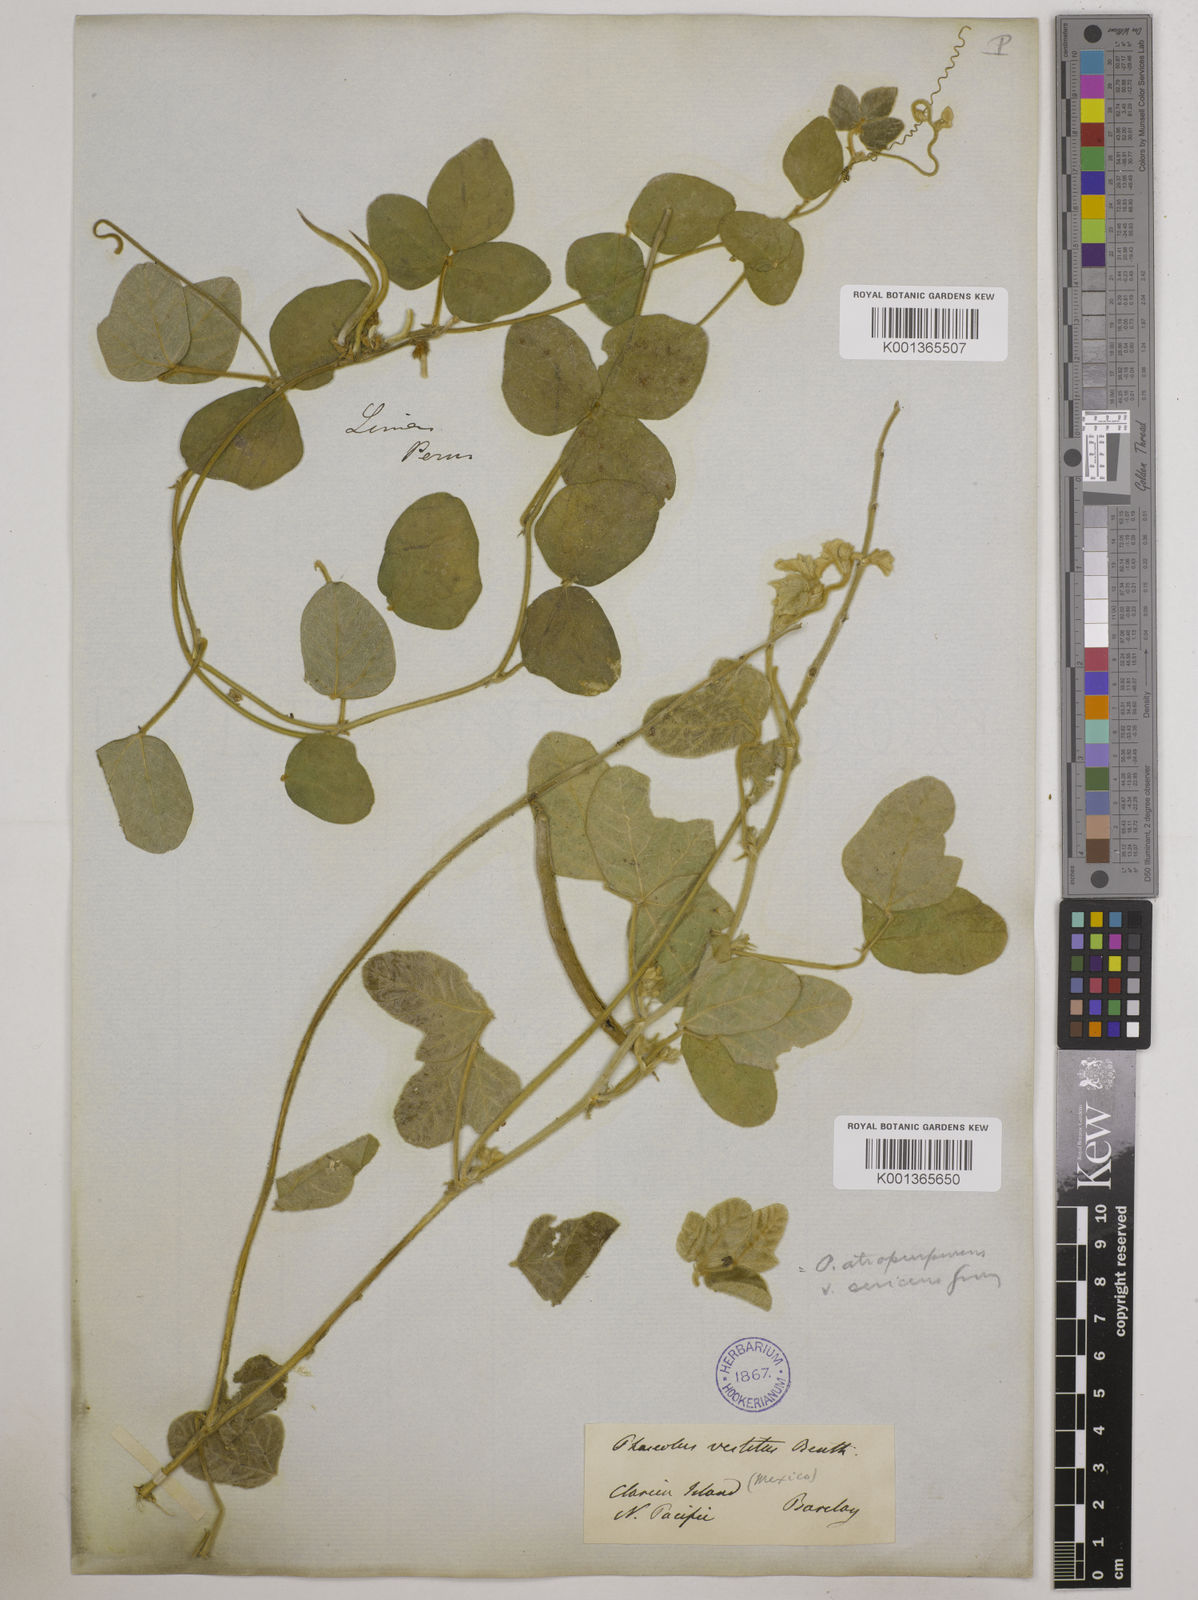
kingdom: Plantae
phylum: Tracheophyta
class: Magnoliopsida
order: Fabales
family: Fabaceae
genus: Macroptilium
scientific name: Macroptilium atropurpureum
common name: Purple bushbean
